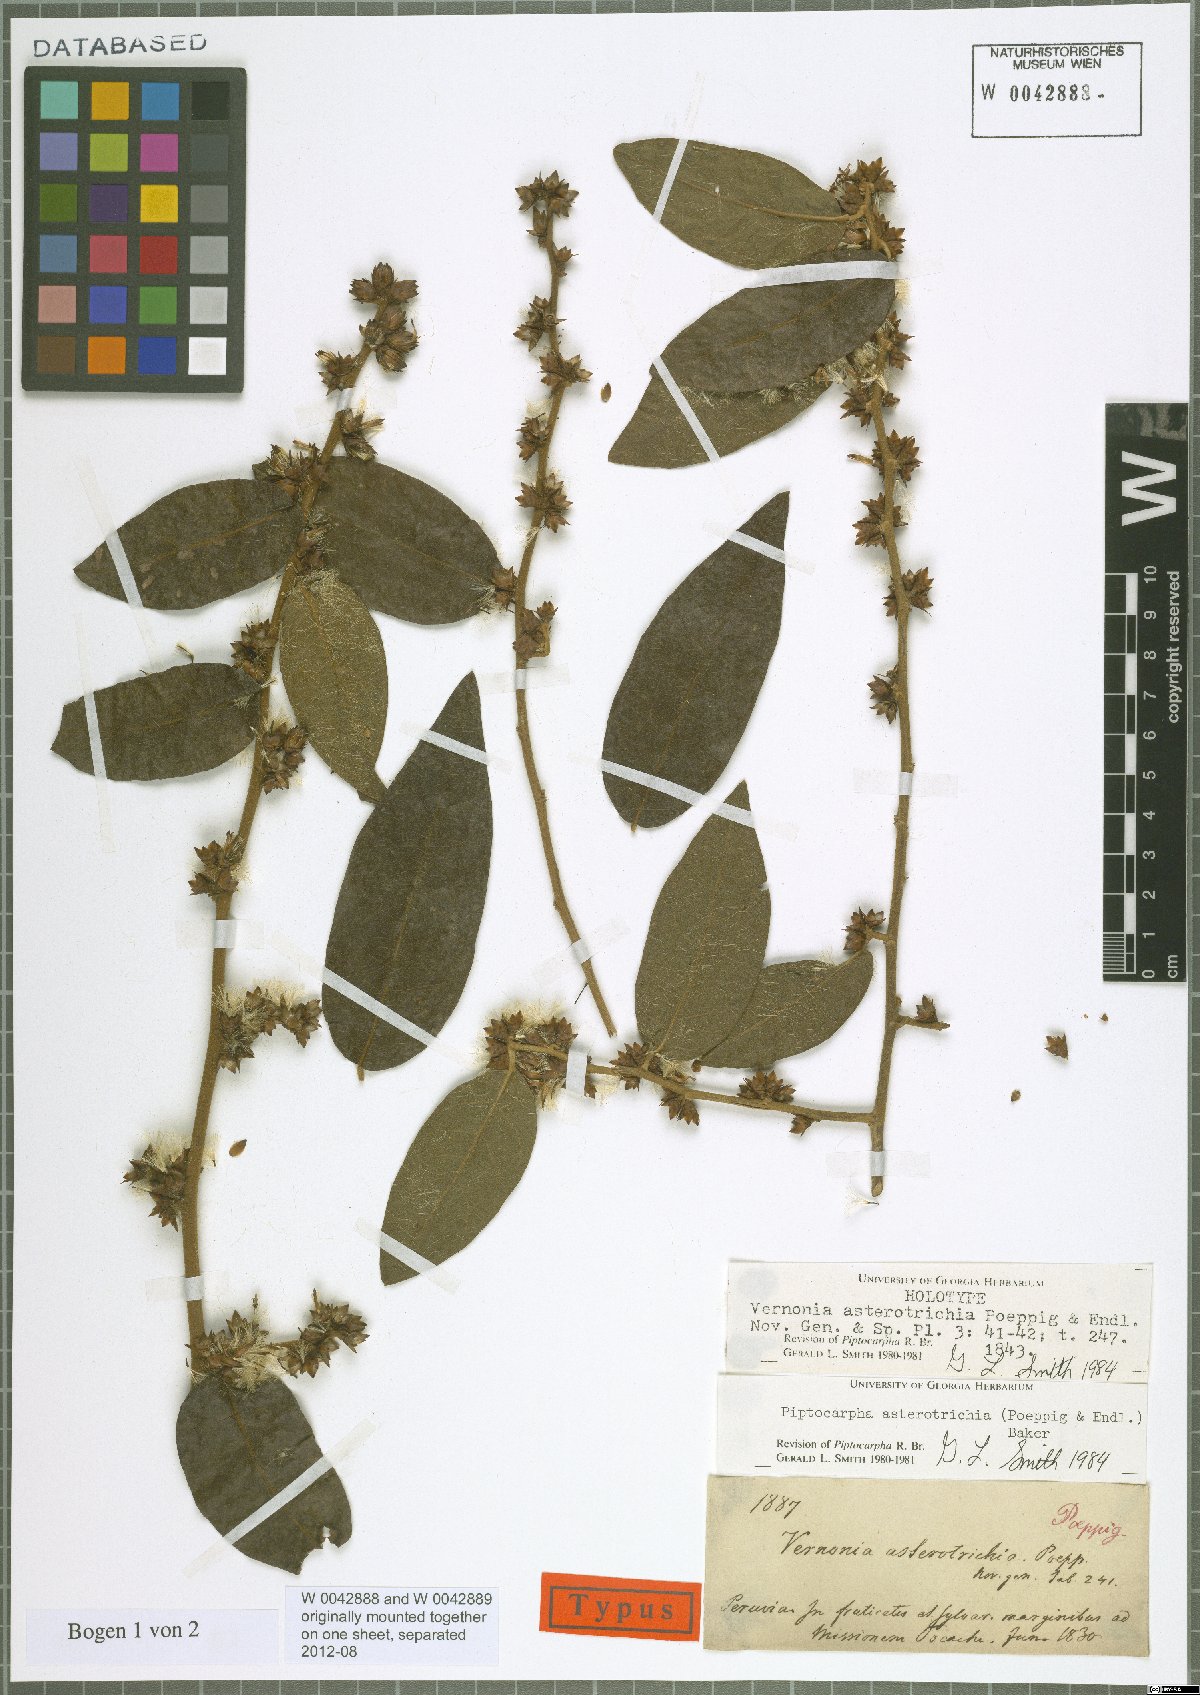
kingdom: Plantae
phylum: Tracheophyta
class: Magnoliopsida
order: Asterales
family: Asteraceae
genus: Piptocarpha
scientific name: Piptocarpha asterotrichia
